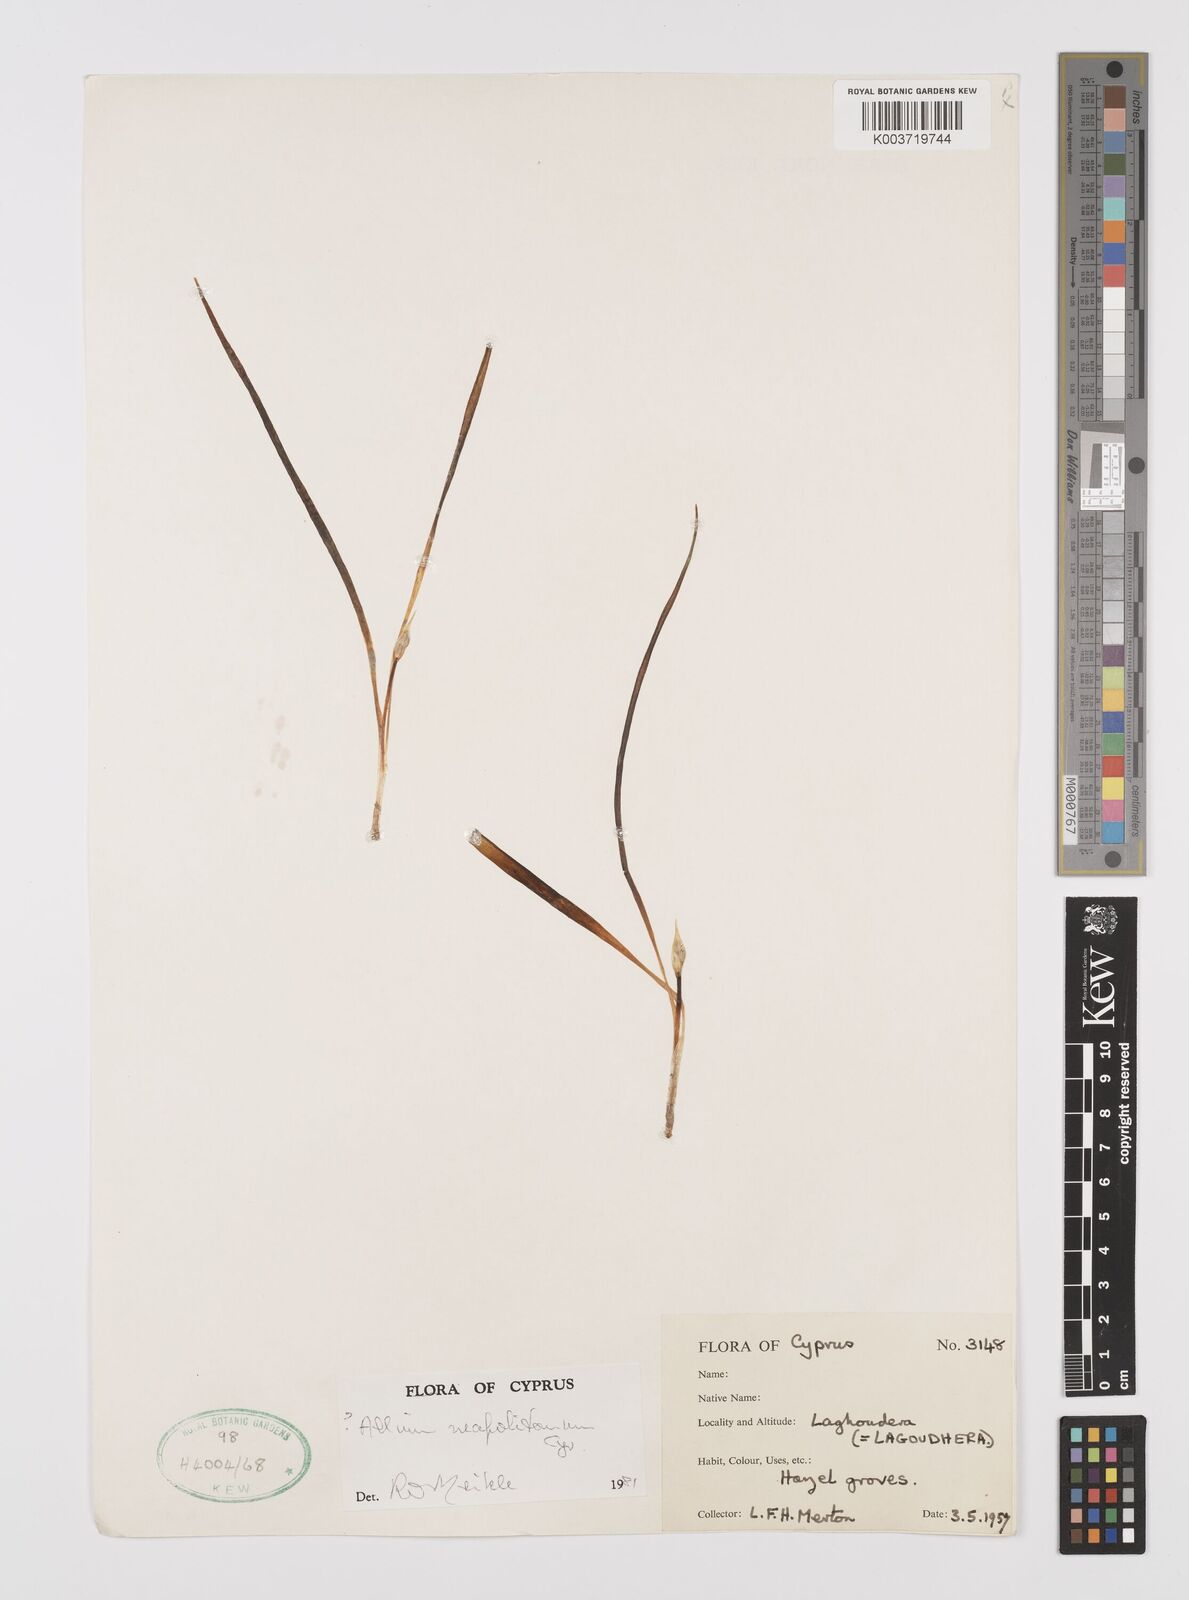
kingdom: Plantae
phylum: Tracheophyta
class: Liliopsida
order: Asparagales
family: Amaryllidaceae
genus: Allium
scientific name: Allium neapolitanum
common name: Neapolitan garlic
